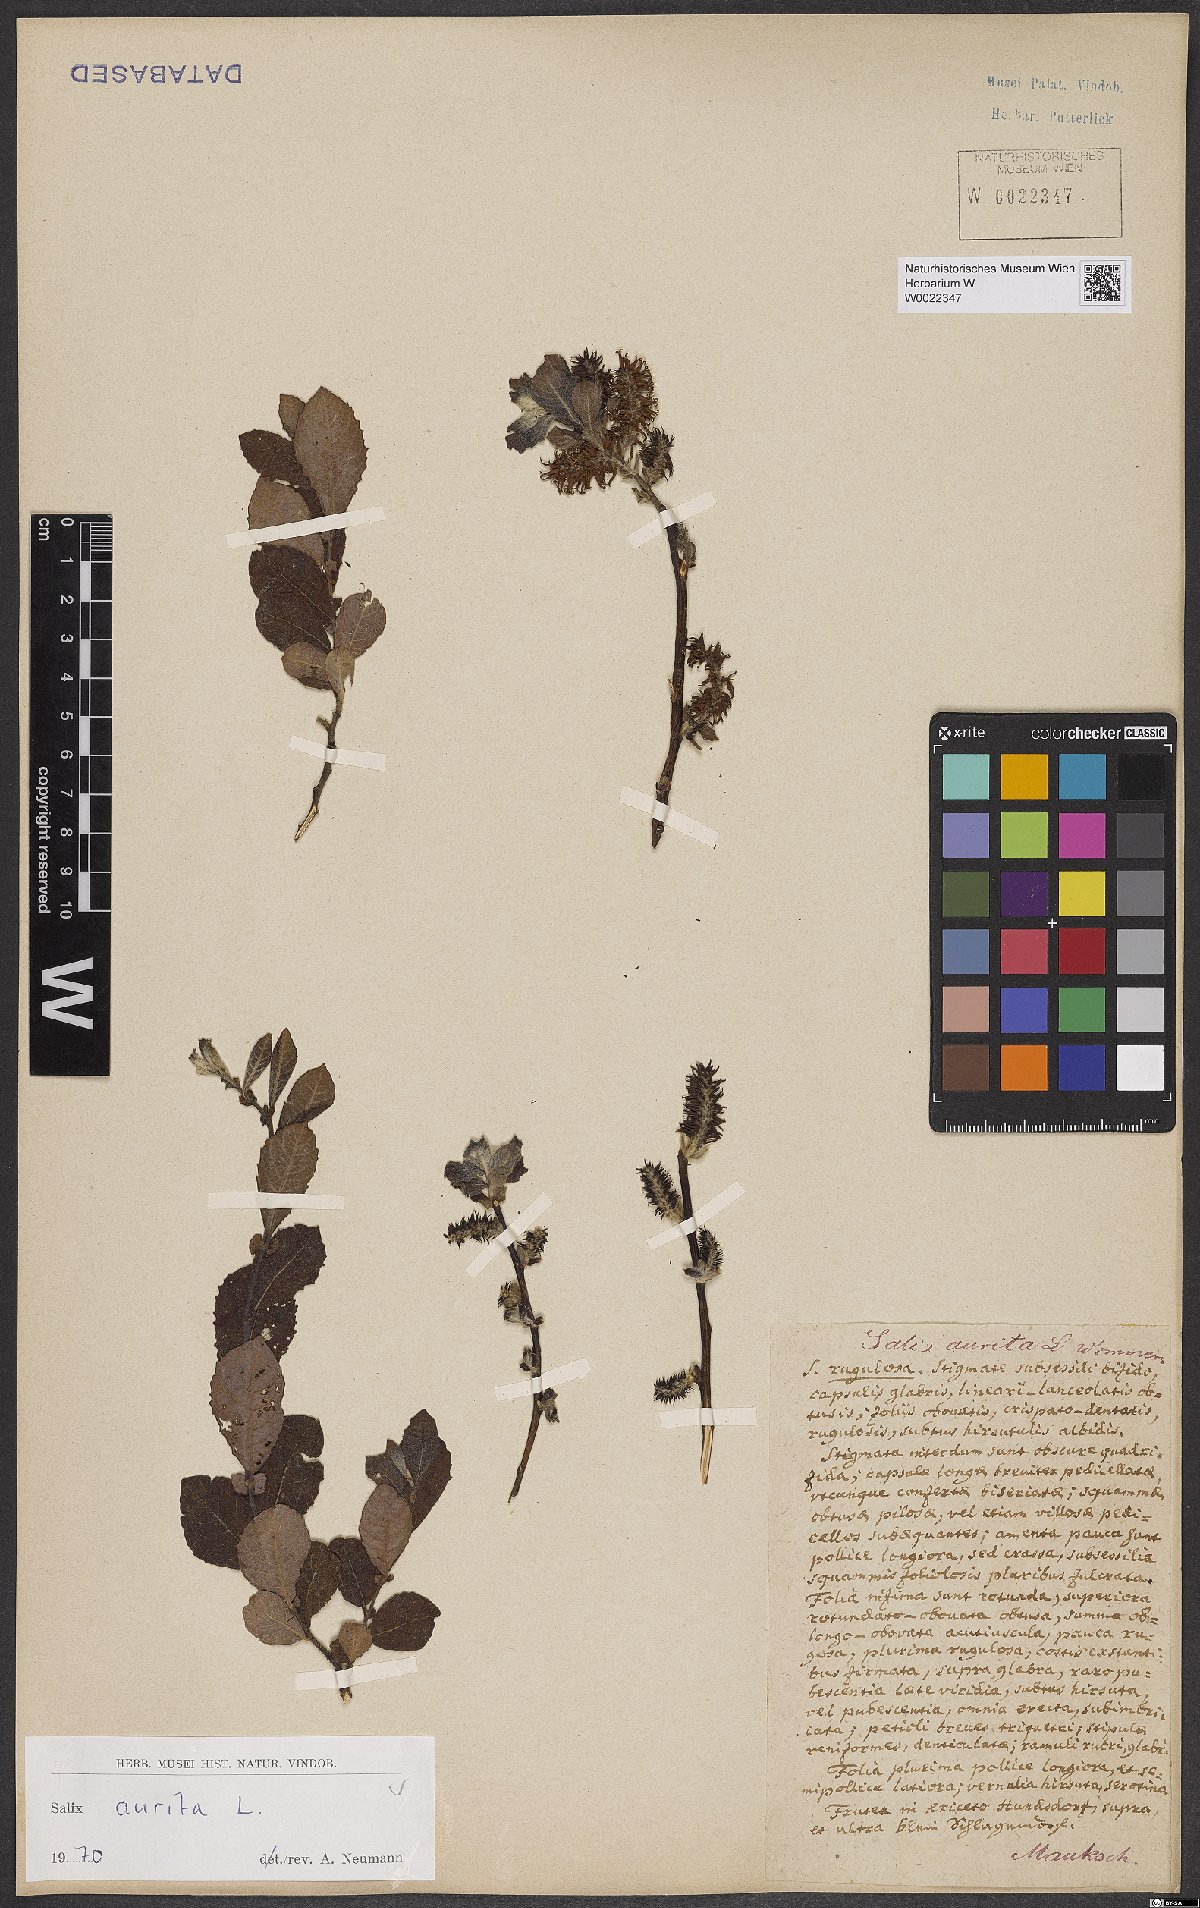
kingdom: Plantae
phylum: Tracheophyta
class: Magnoliopsida
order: Malpighiales
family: Salicaceae
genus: Salix
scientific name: Salix aurita
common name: Eared willow
